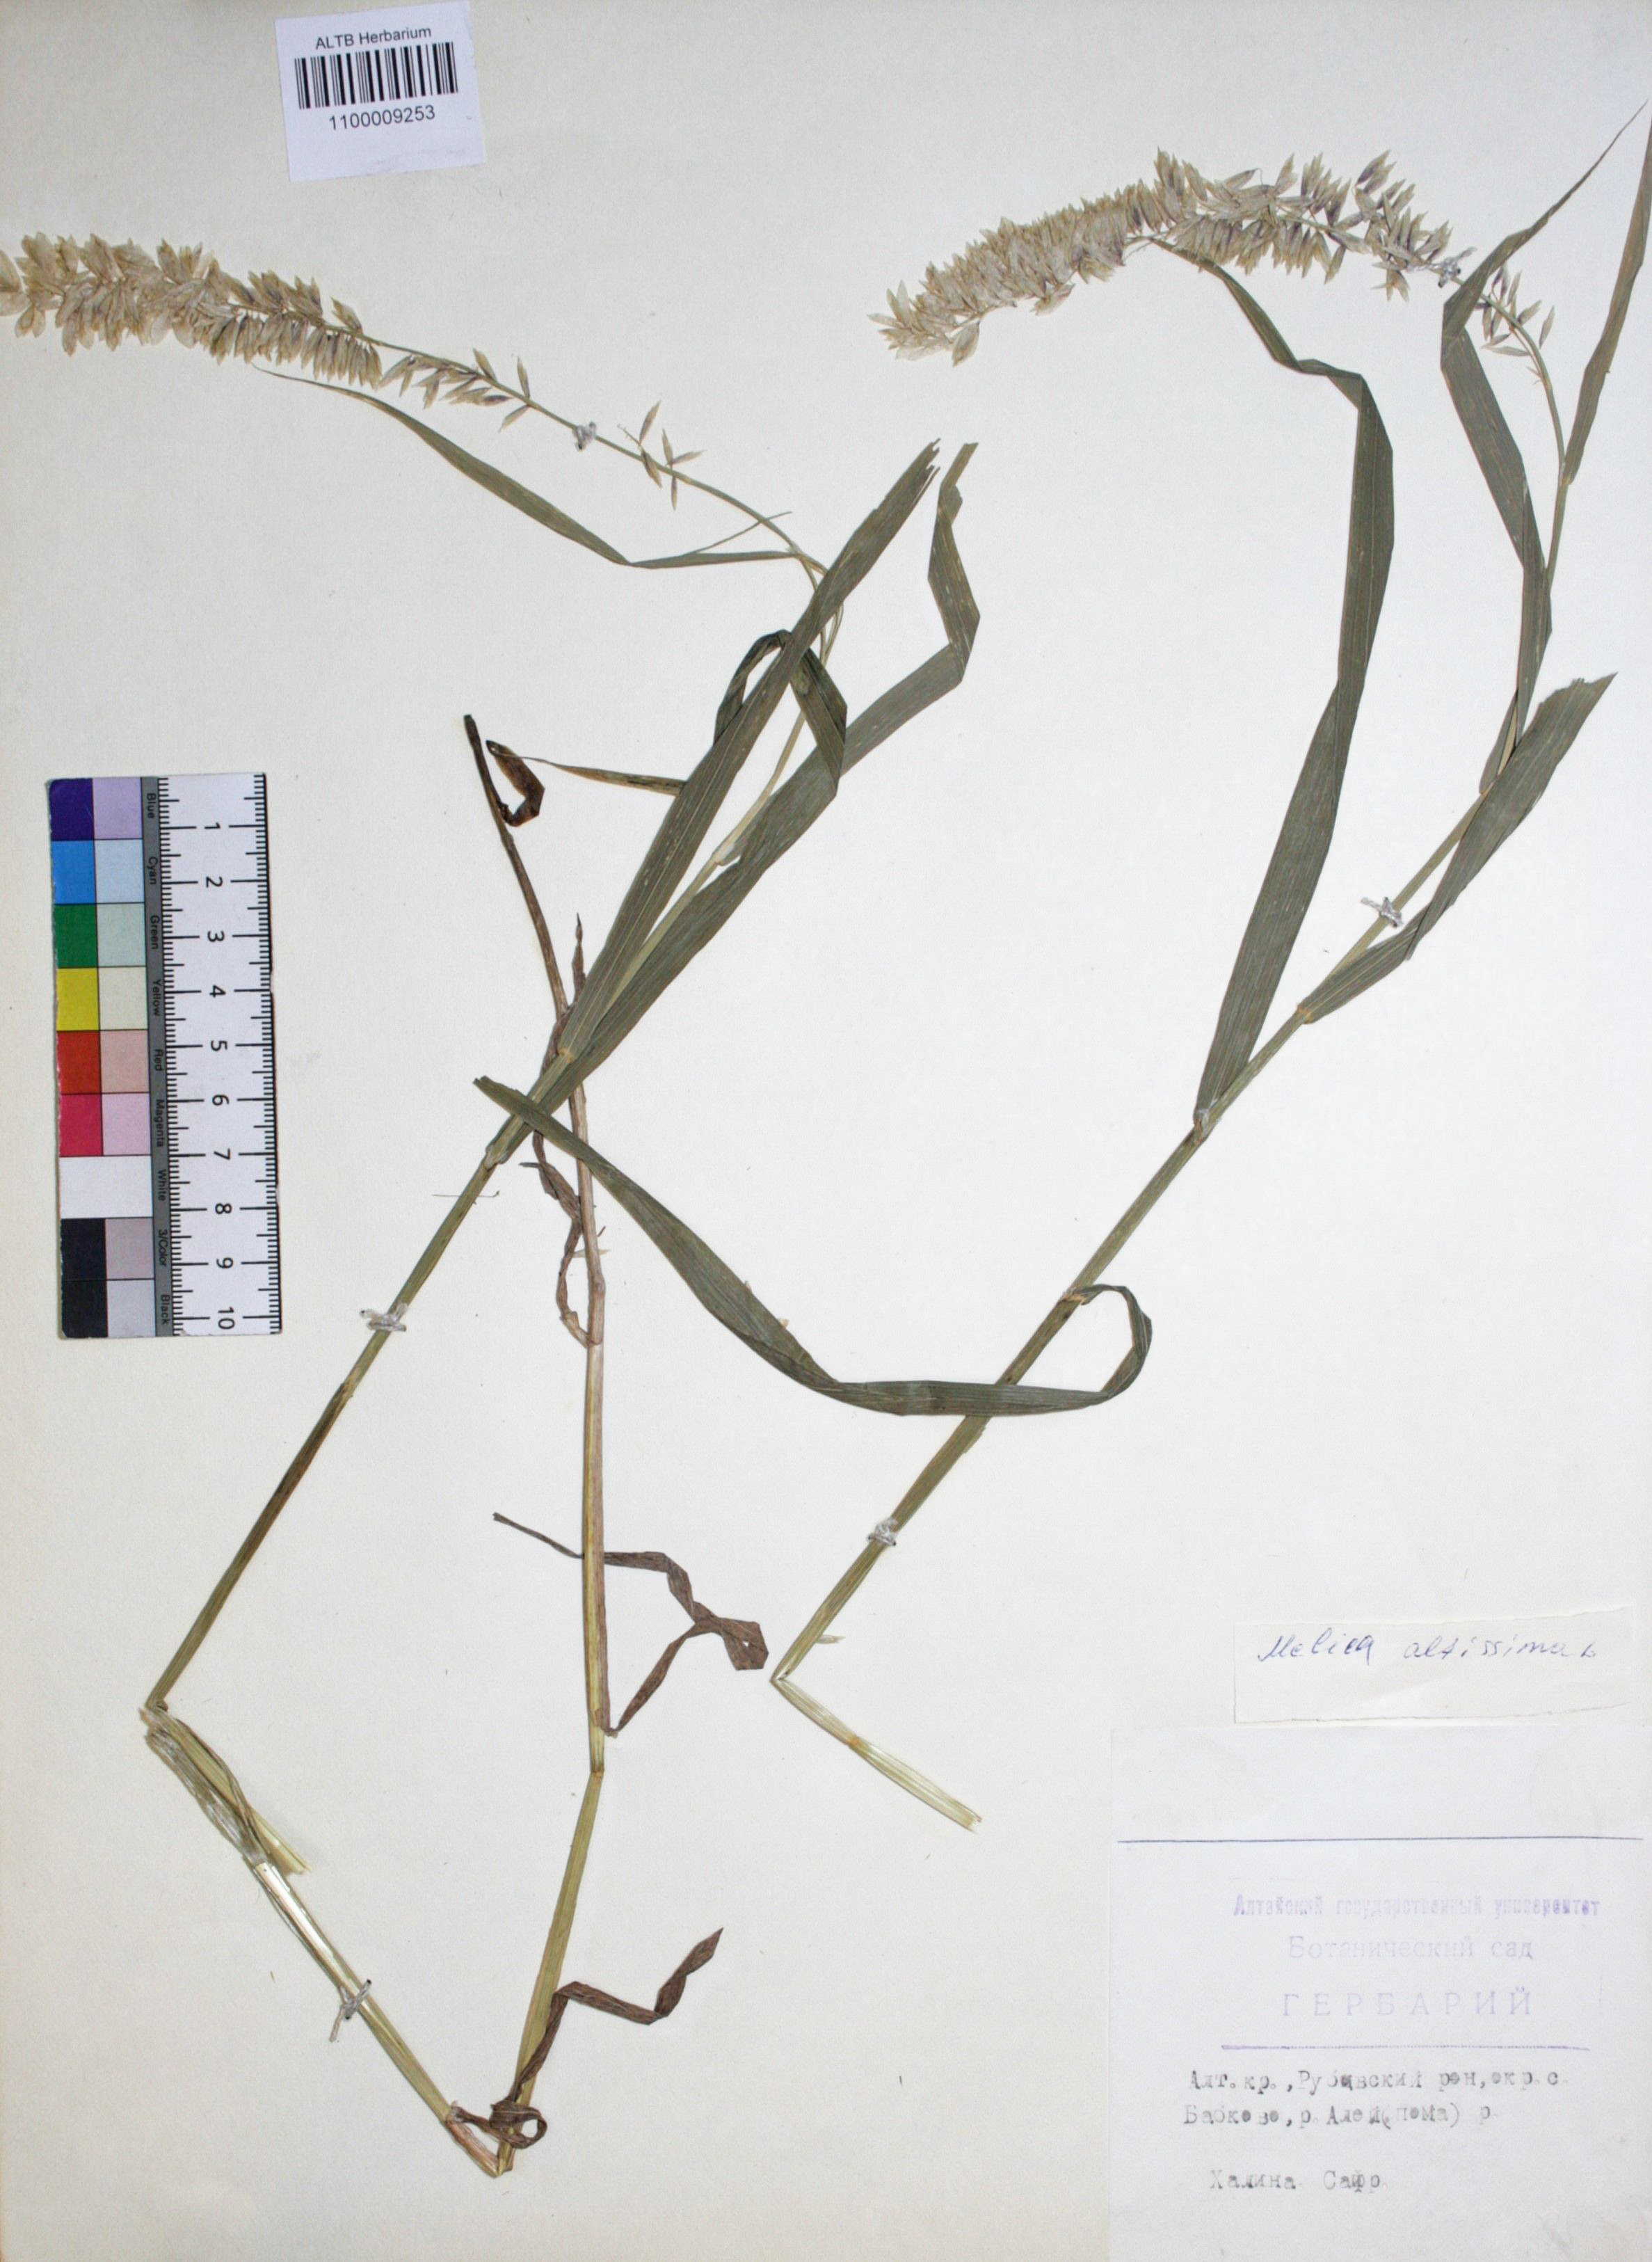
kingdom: Plantae
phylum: Tracheophyta
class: Liliopsida
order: Poales
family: Poaceae
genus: Melica
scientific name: Melica altissima
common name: Siberian melicgrass
